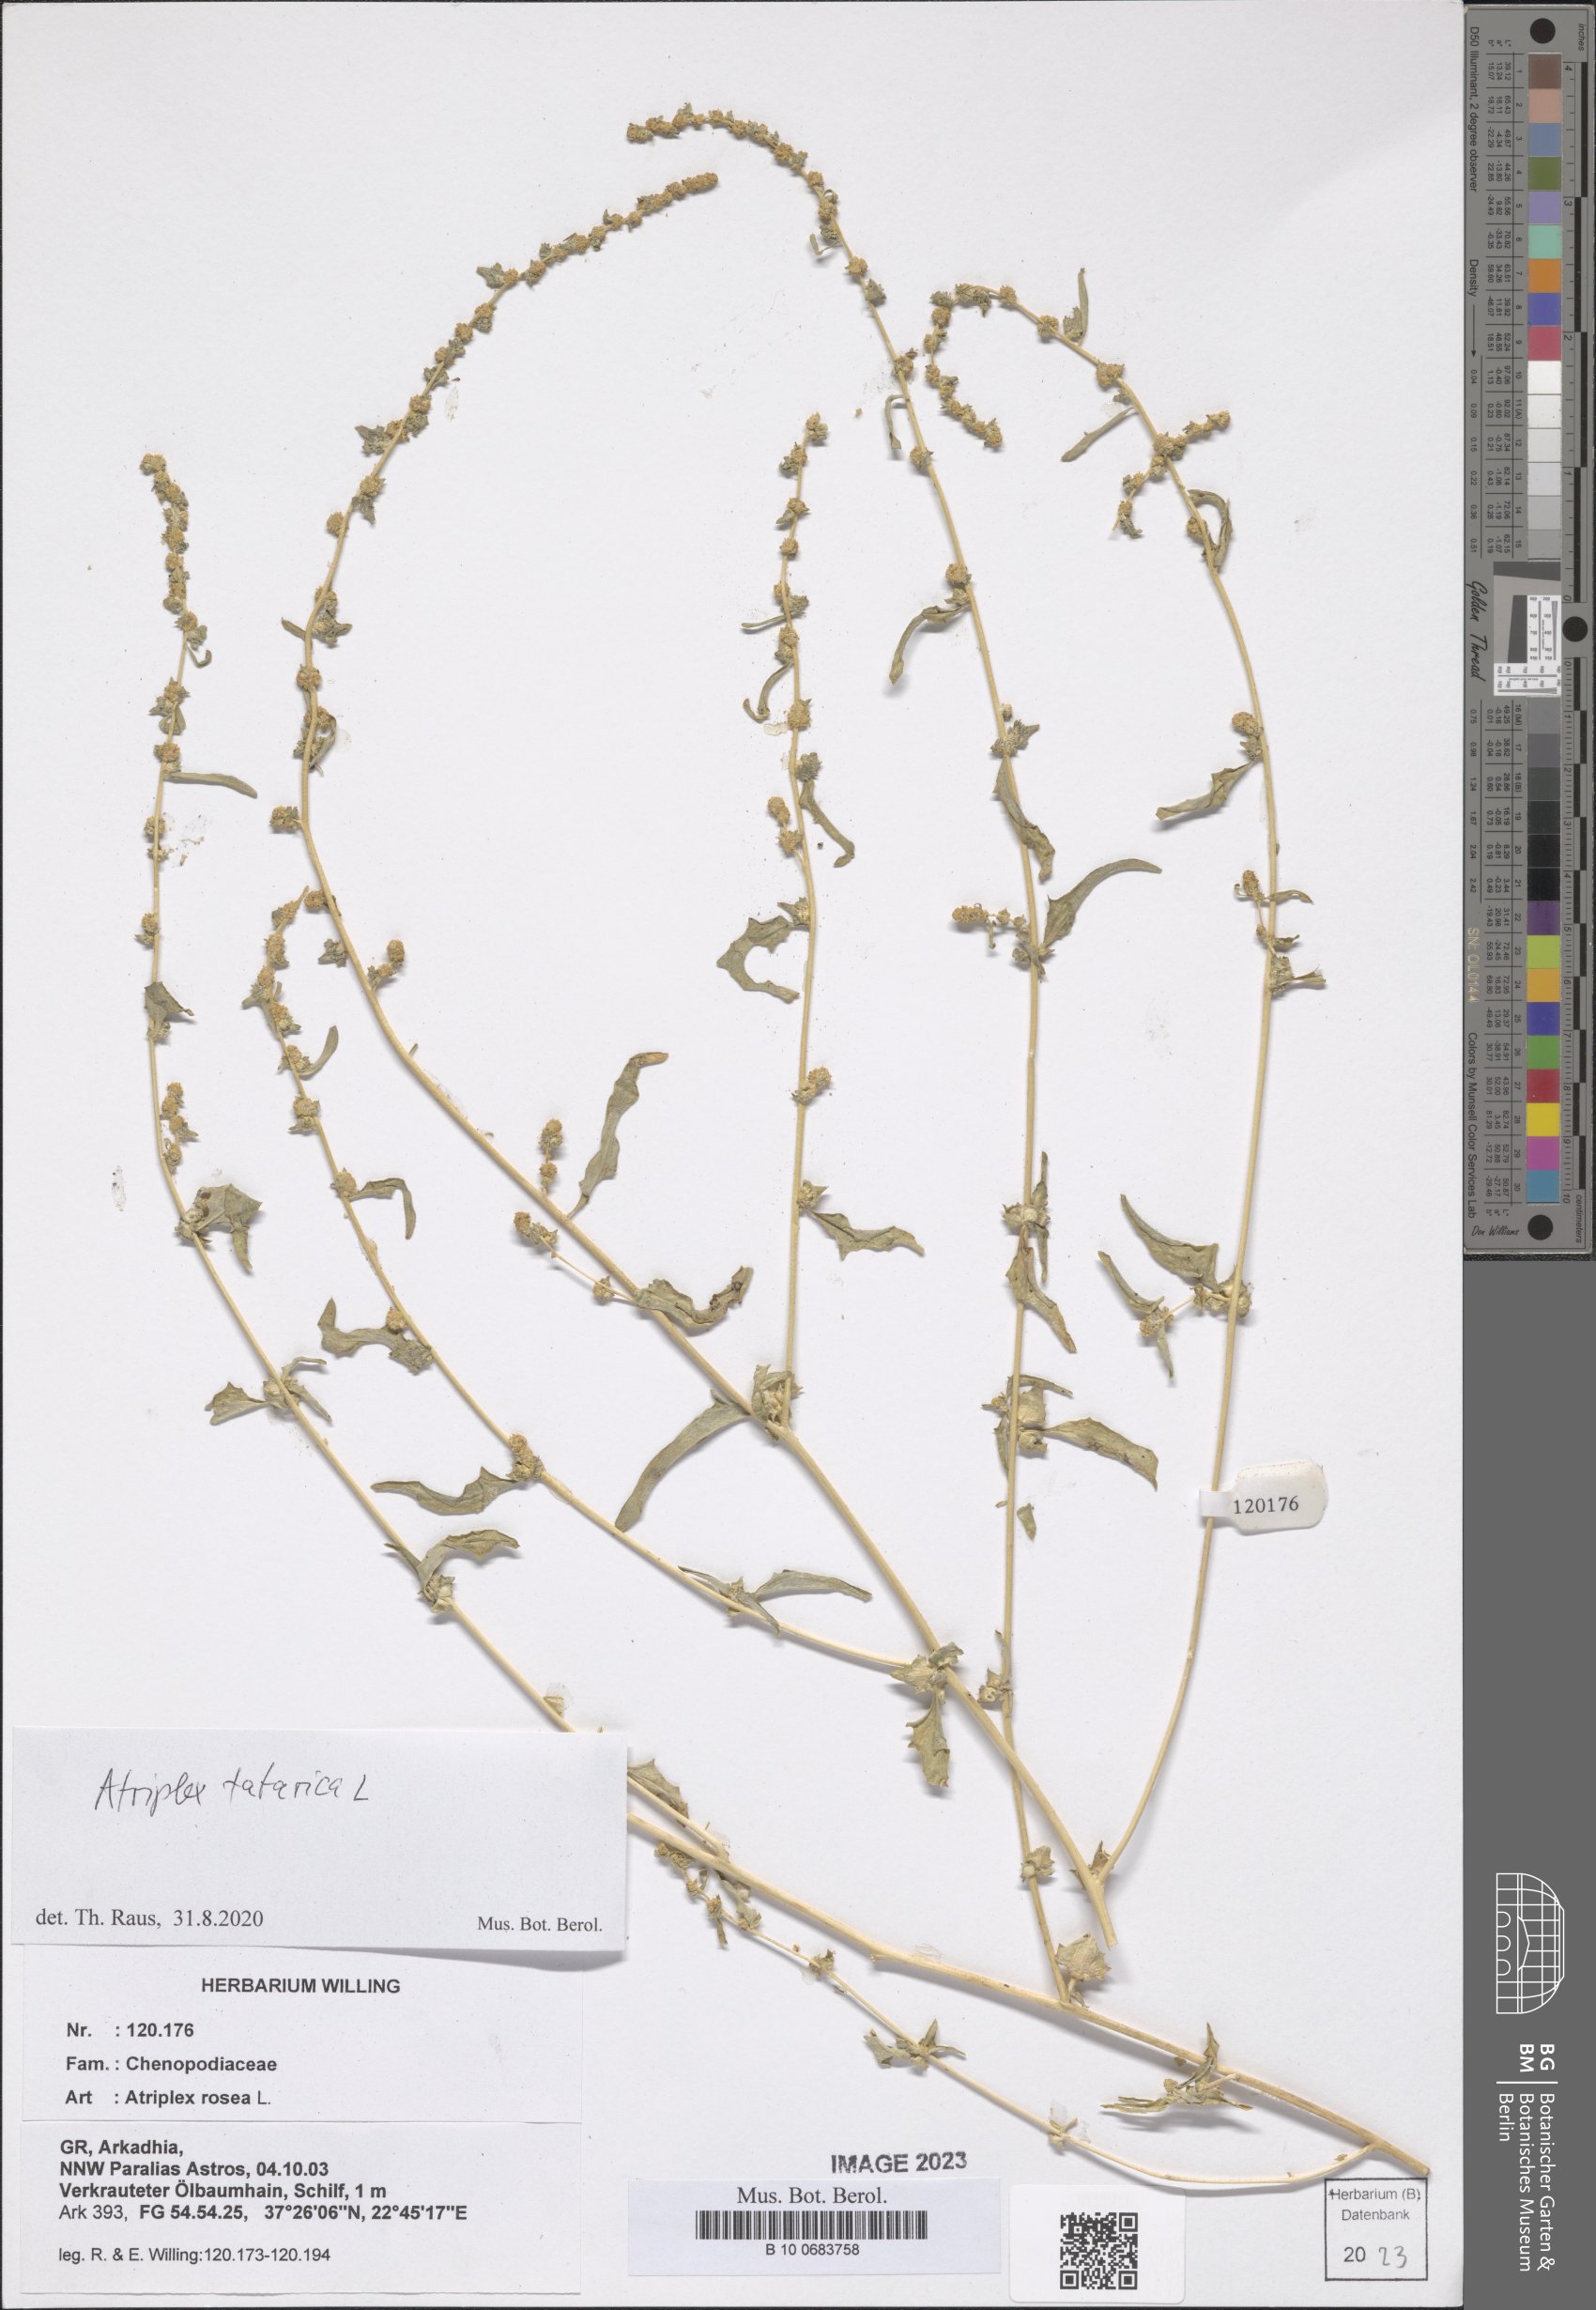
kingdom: Plantae
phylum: Tracheophyta
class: Magnoliopsida
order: Caryophyllales
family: Amaranthaceae
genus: Atriplex
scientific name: Atriplex tatarica
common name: Tatarian orache
